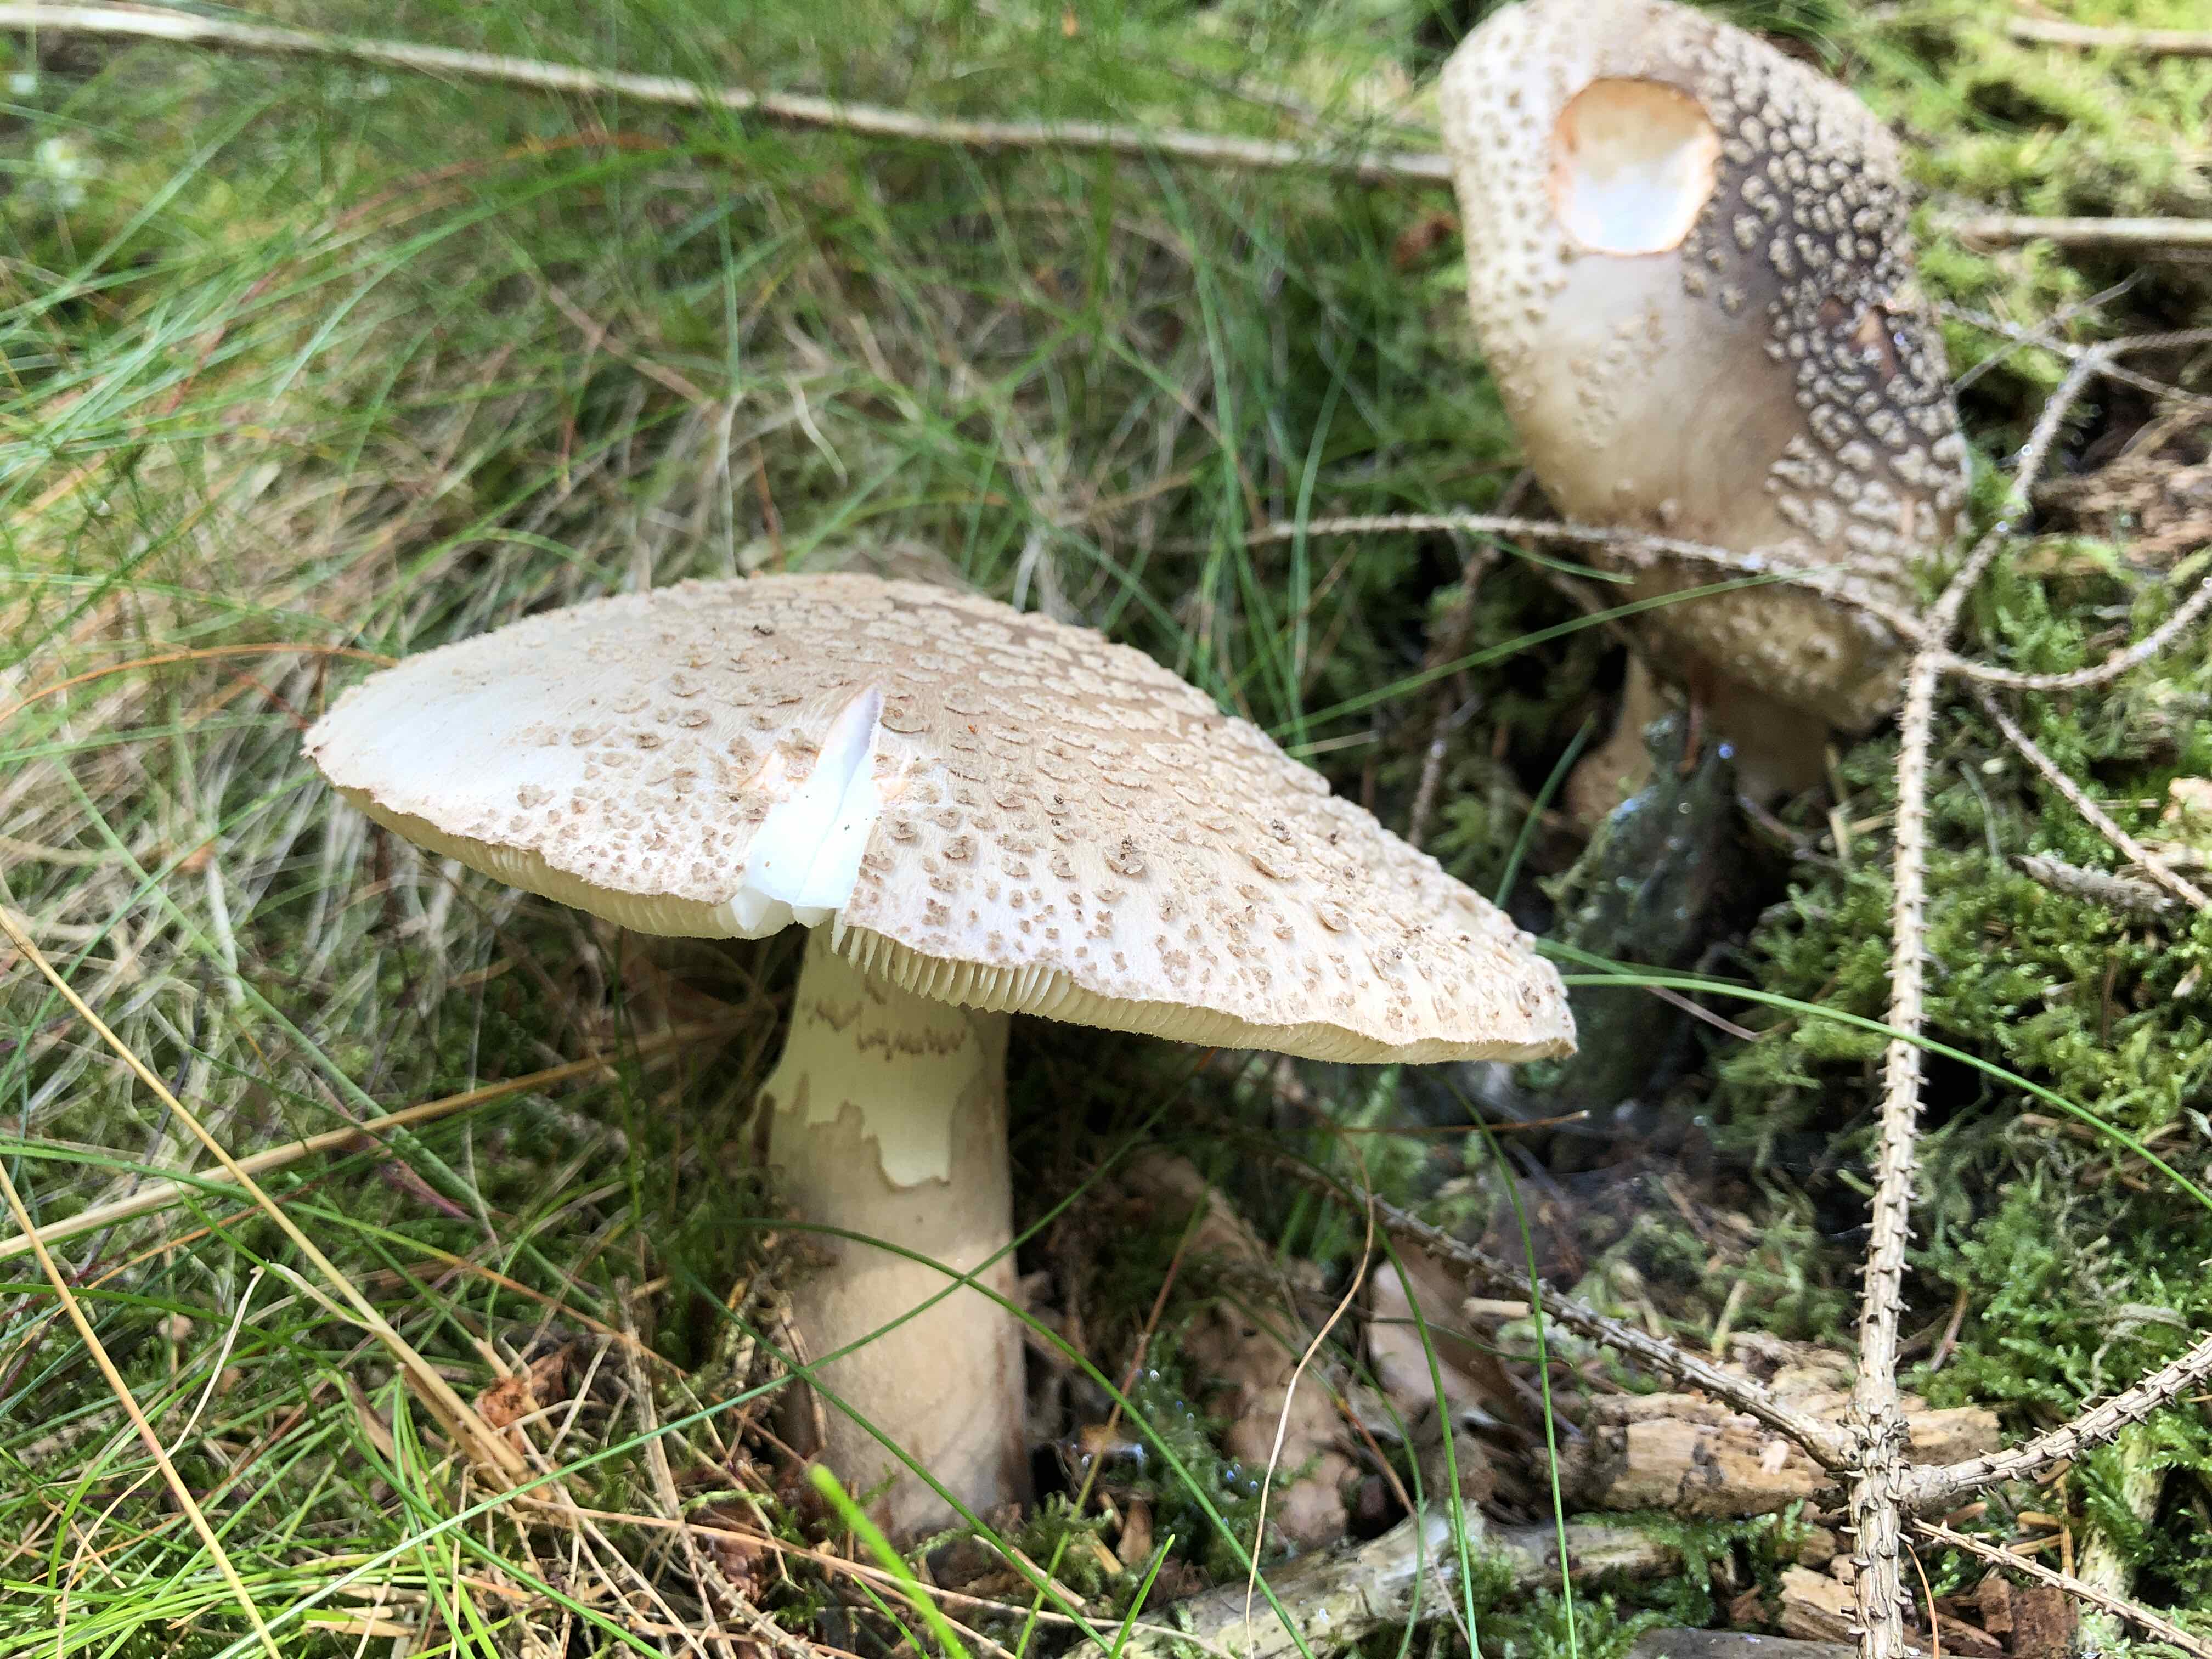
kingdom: Fungi
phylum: Basidiomycota
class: Agaricomycetes
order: Agaricales
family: Amanitaceae
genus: Amanita
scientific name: Amanita rubescens
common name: rødmende fluesvamp
